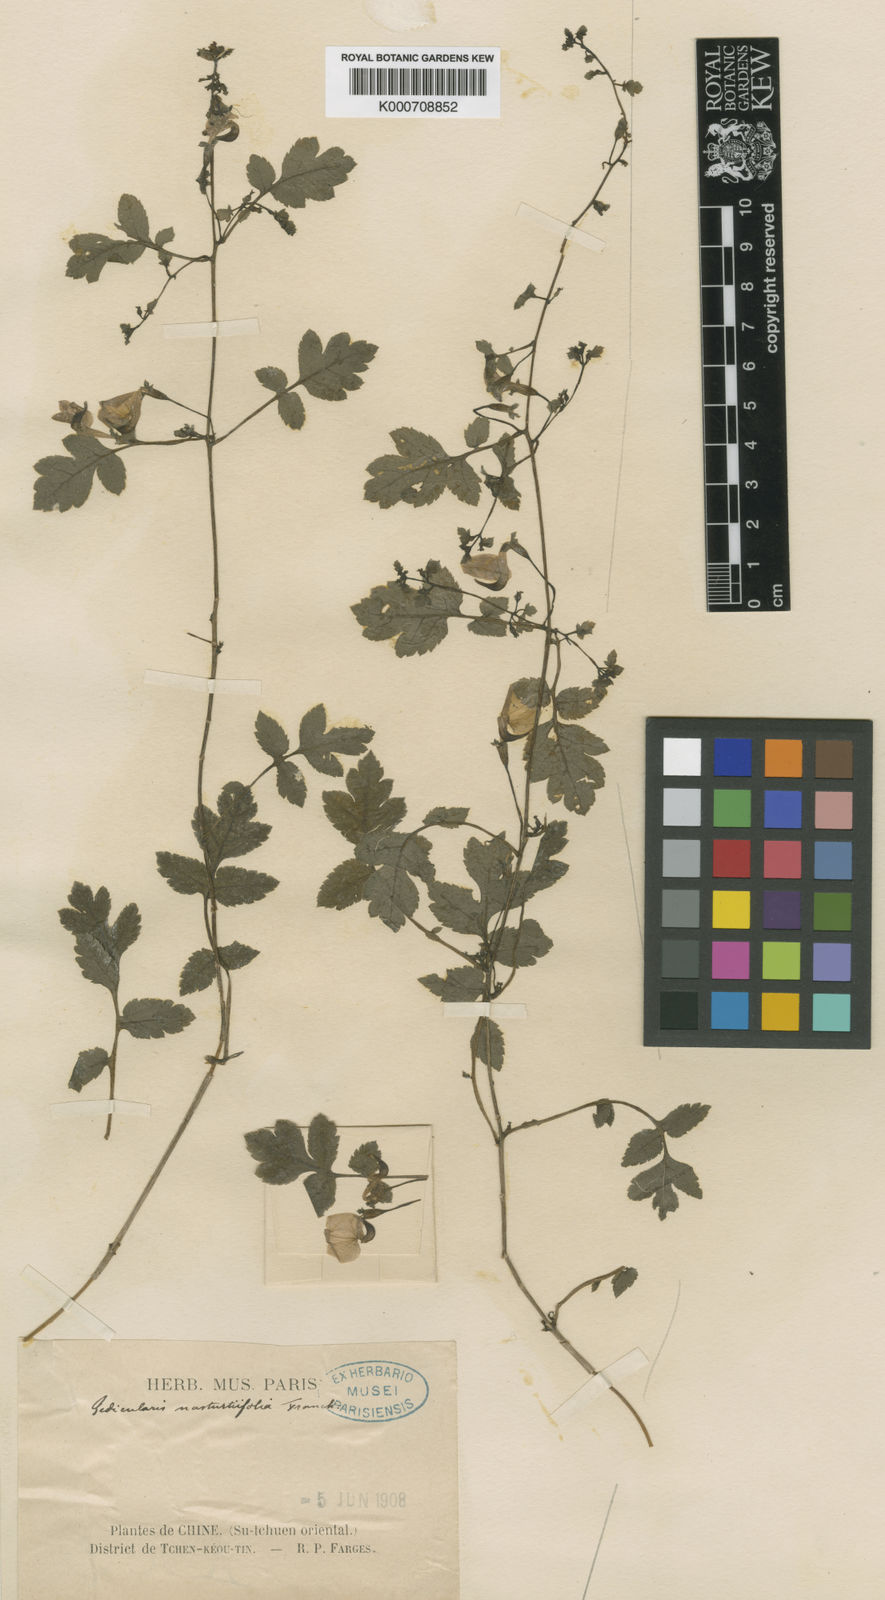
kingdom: Plantae
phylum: Tracheophyta
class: Magnoliopsida
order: Lamiales
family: Orobanchaceae
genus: Pedicularis
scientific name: Pedicularis nasturtiifolia
